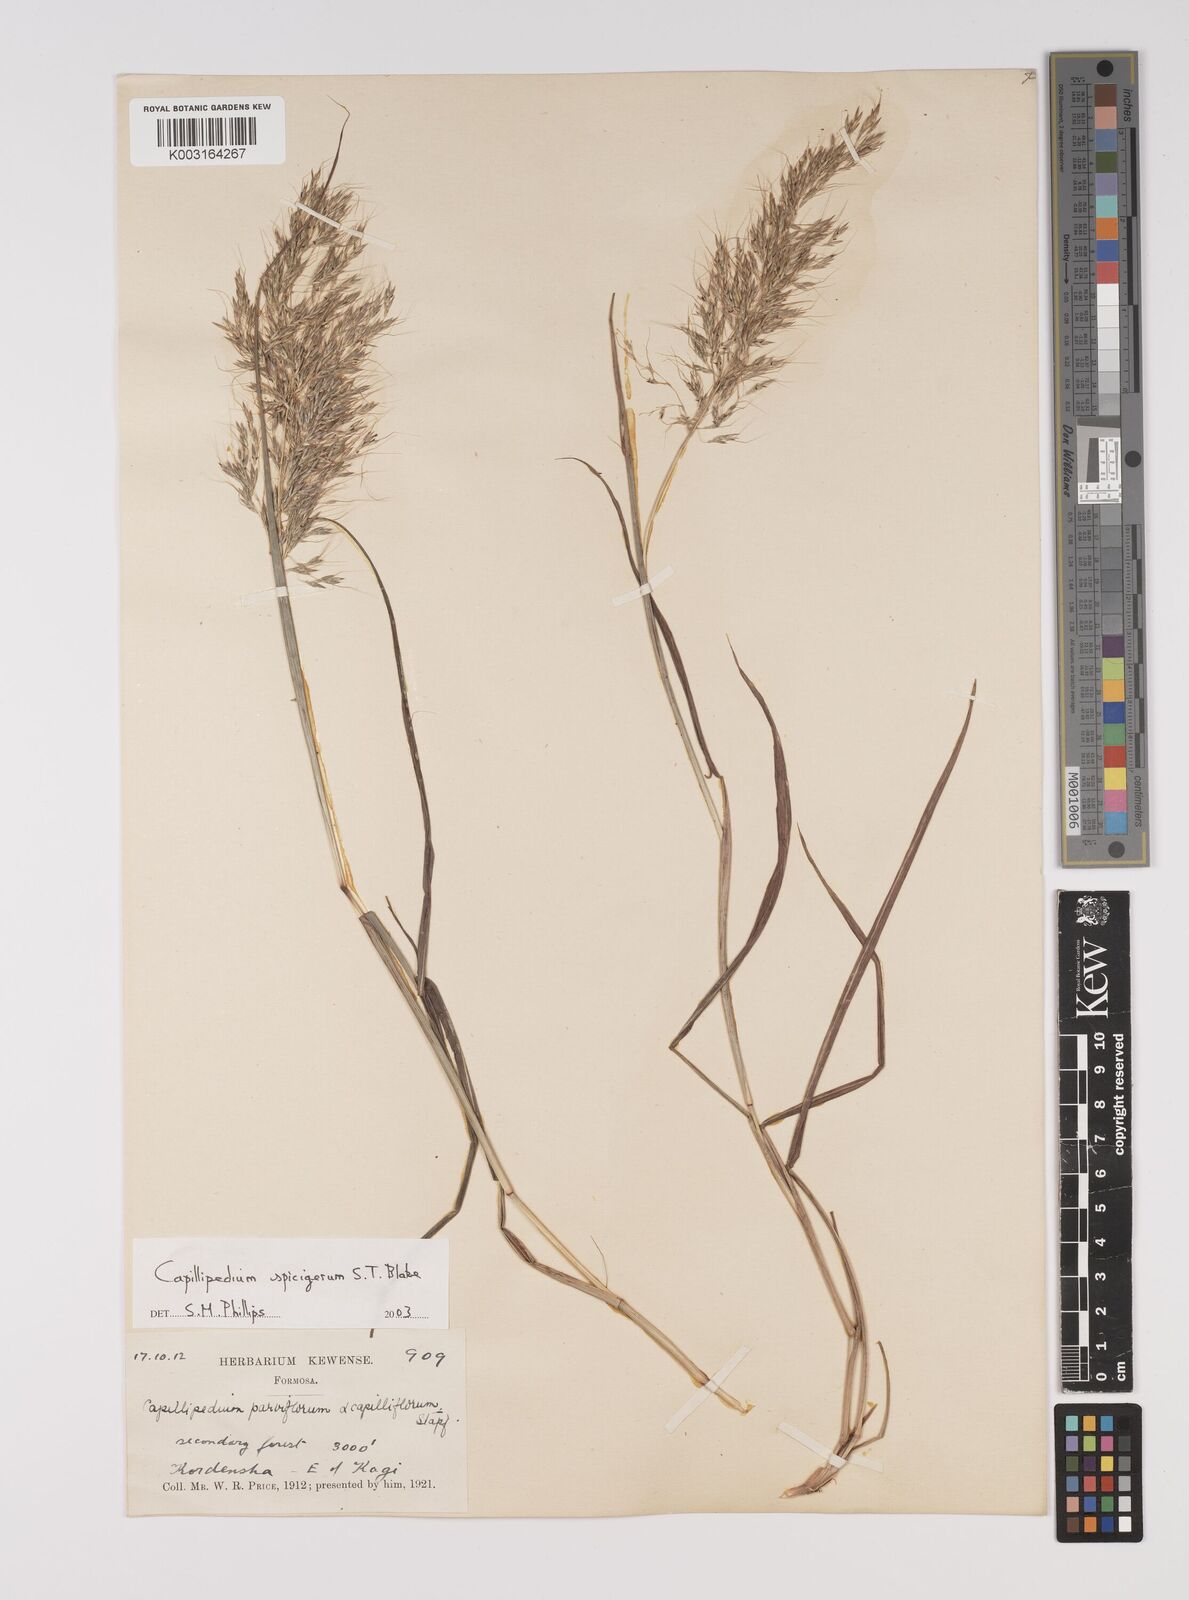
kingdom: Plantae
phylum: Tracheophyta
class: Liliopsida
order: Poales
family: Poaceae
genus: Capillipedium
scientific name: Capillipedium spicigerum
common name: Scented-top grass
